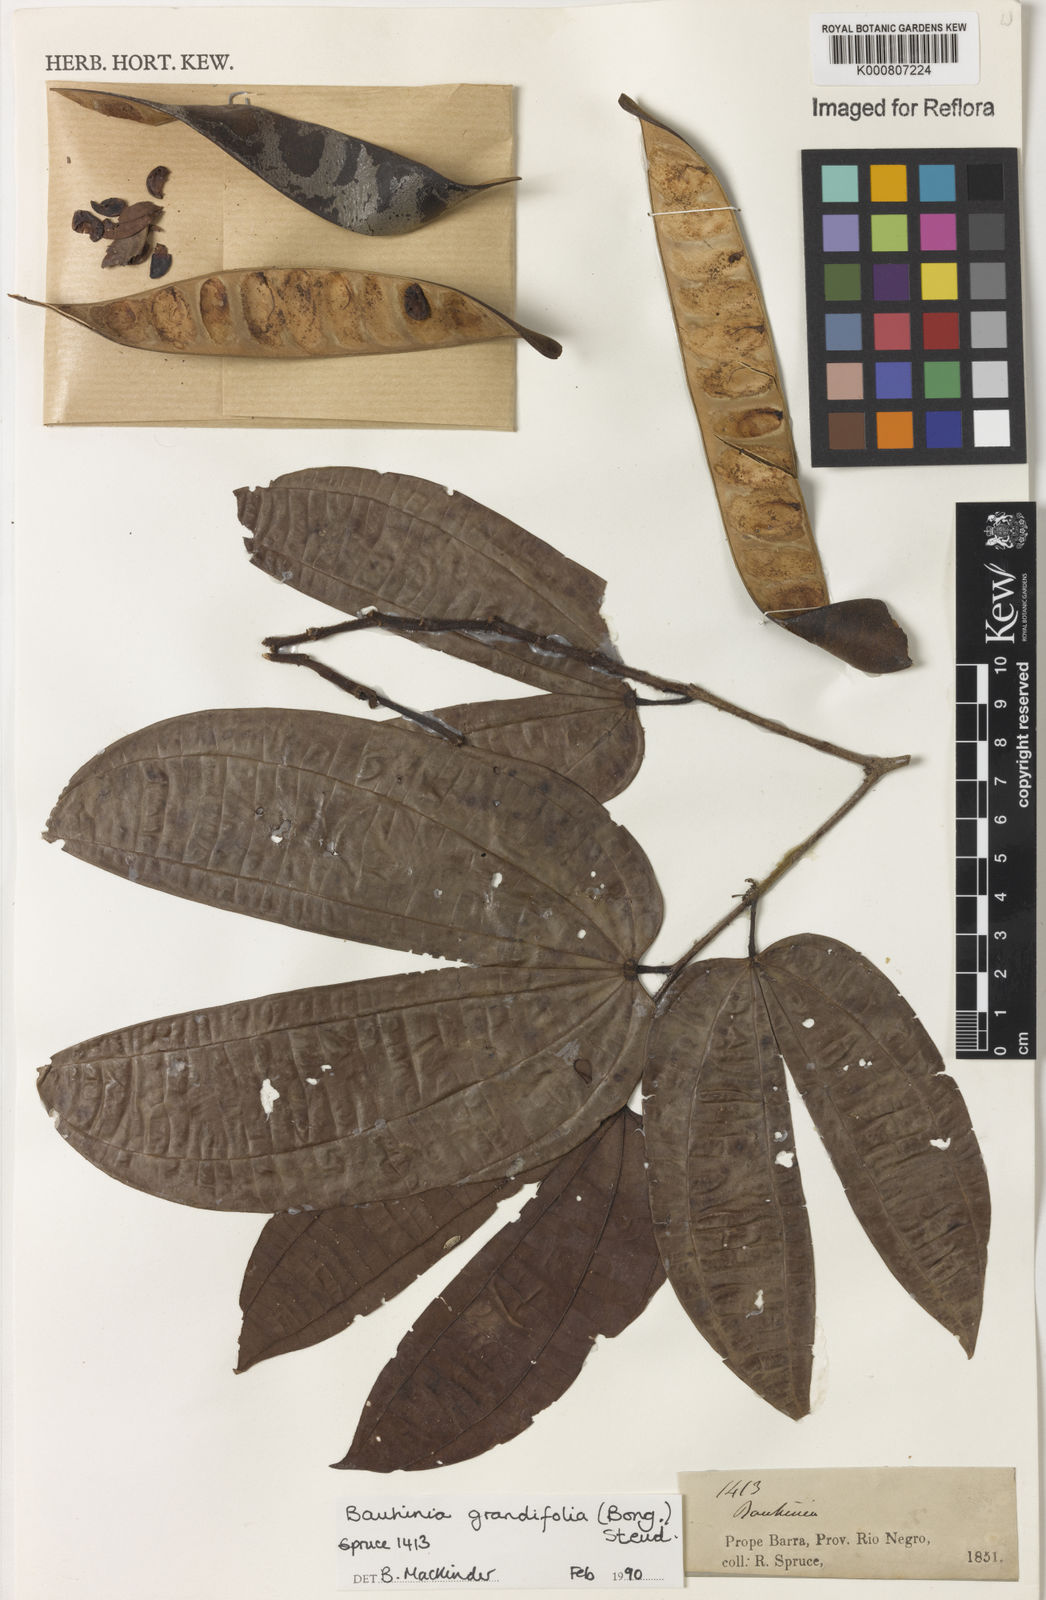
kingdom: Plantae
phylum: Tracheophyta
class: Magnoliopsida
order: Fabales
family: Fabaceae
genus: Bauhinia
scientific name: Bauhinia
